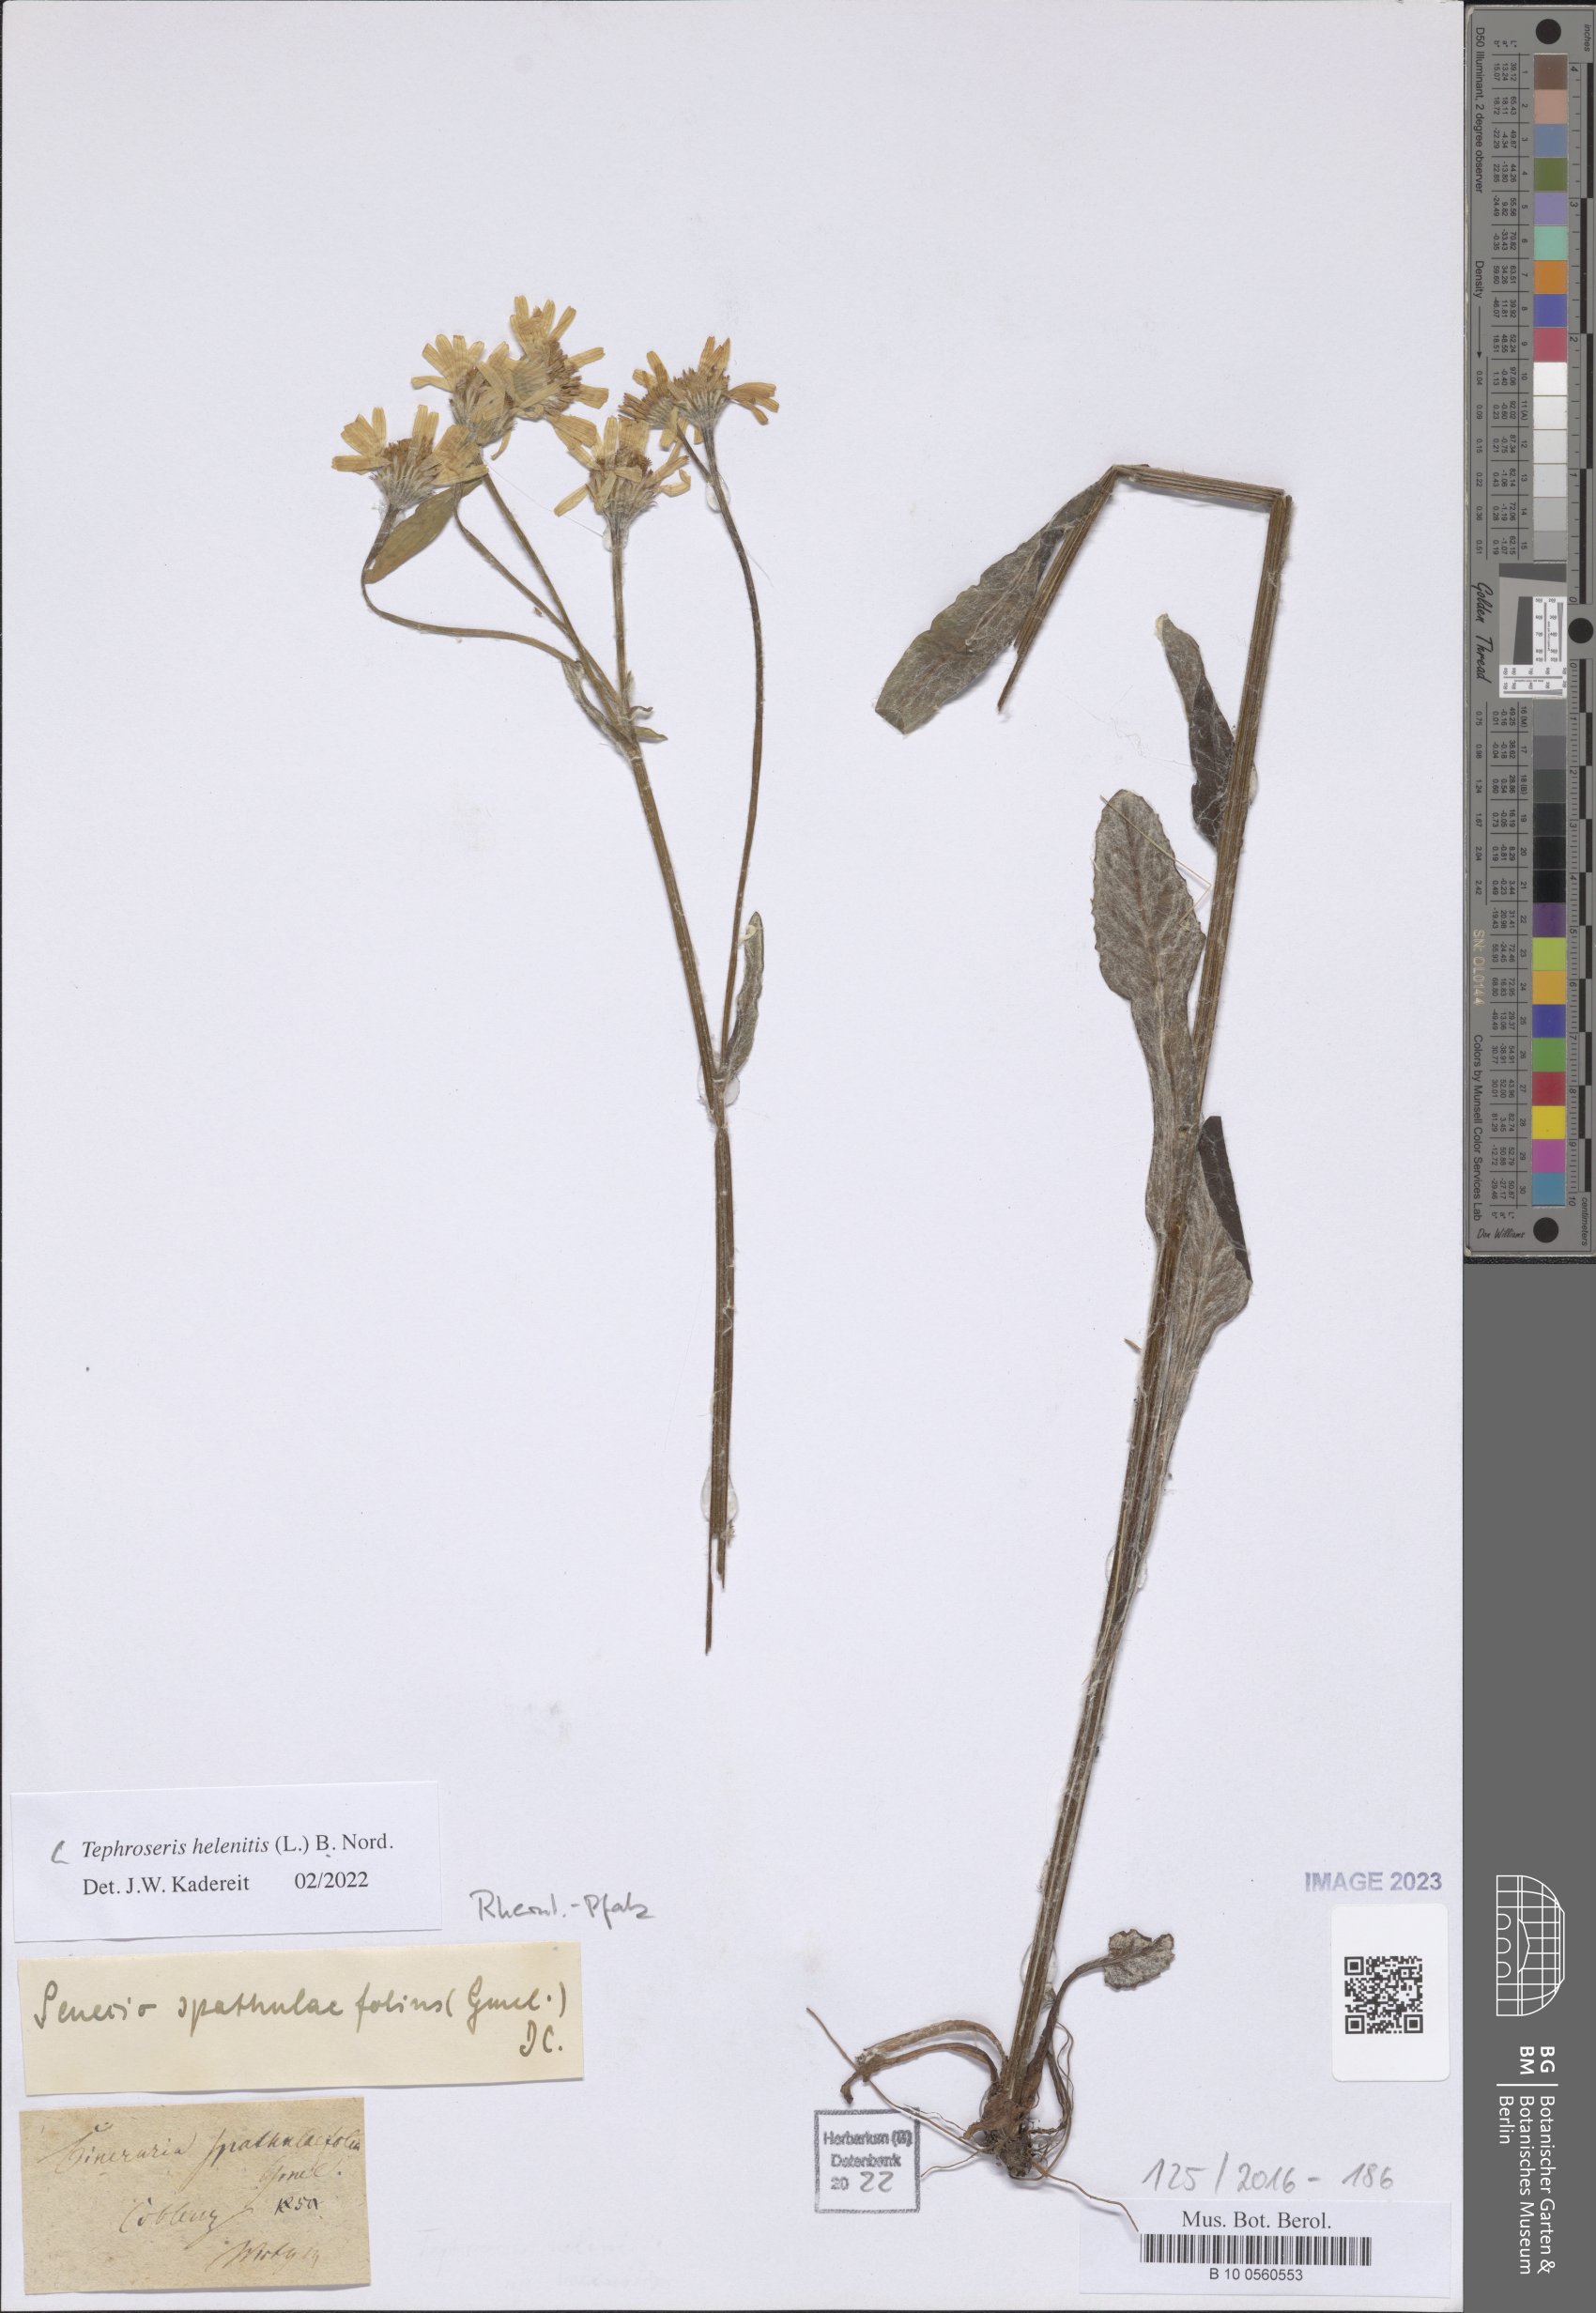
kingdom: Plantae
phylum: Tracheophyta
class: Magnoliopsida
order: Asterales
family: Asteraceae
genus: Tephroseris
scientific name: Tephroseris helenitis
